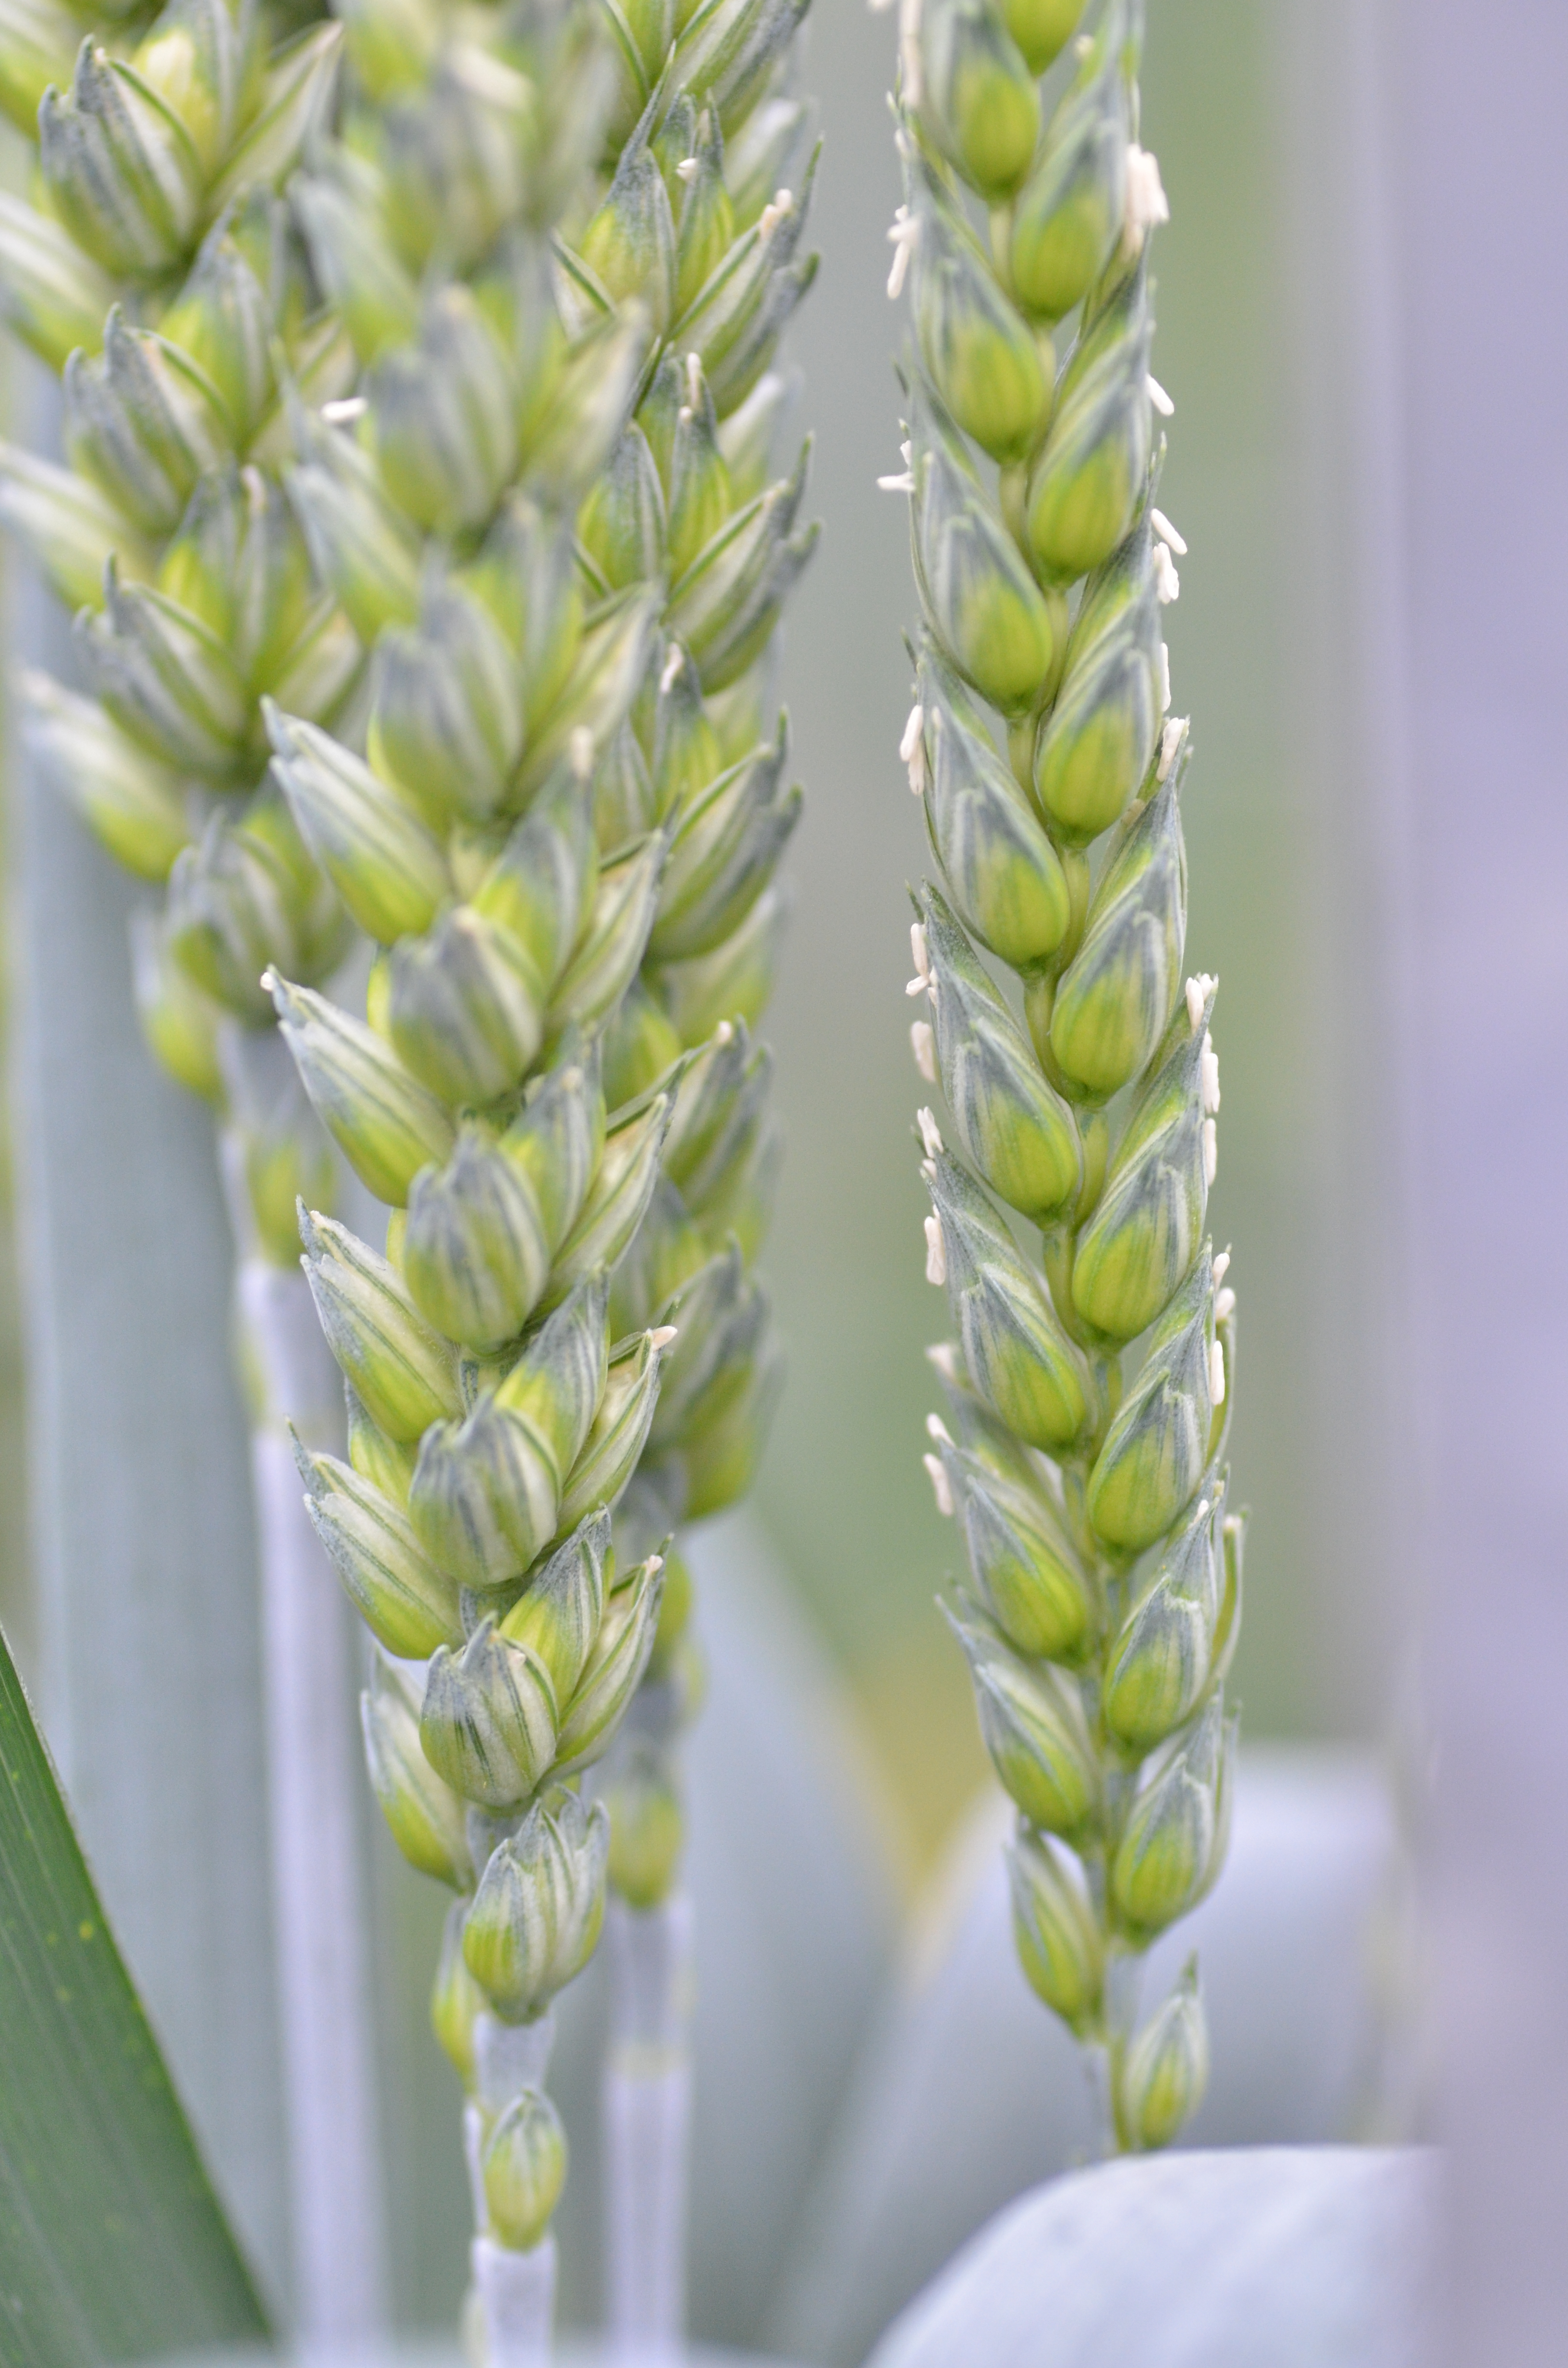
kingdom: Plantae
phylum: Tracheophyta
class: Liliopsida
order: Poales
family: Poaceae
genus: Triticum
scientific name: Triticum aestivum
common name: Common wheat
